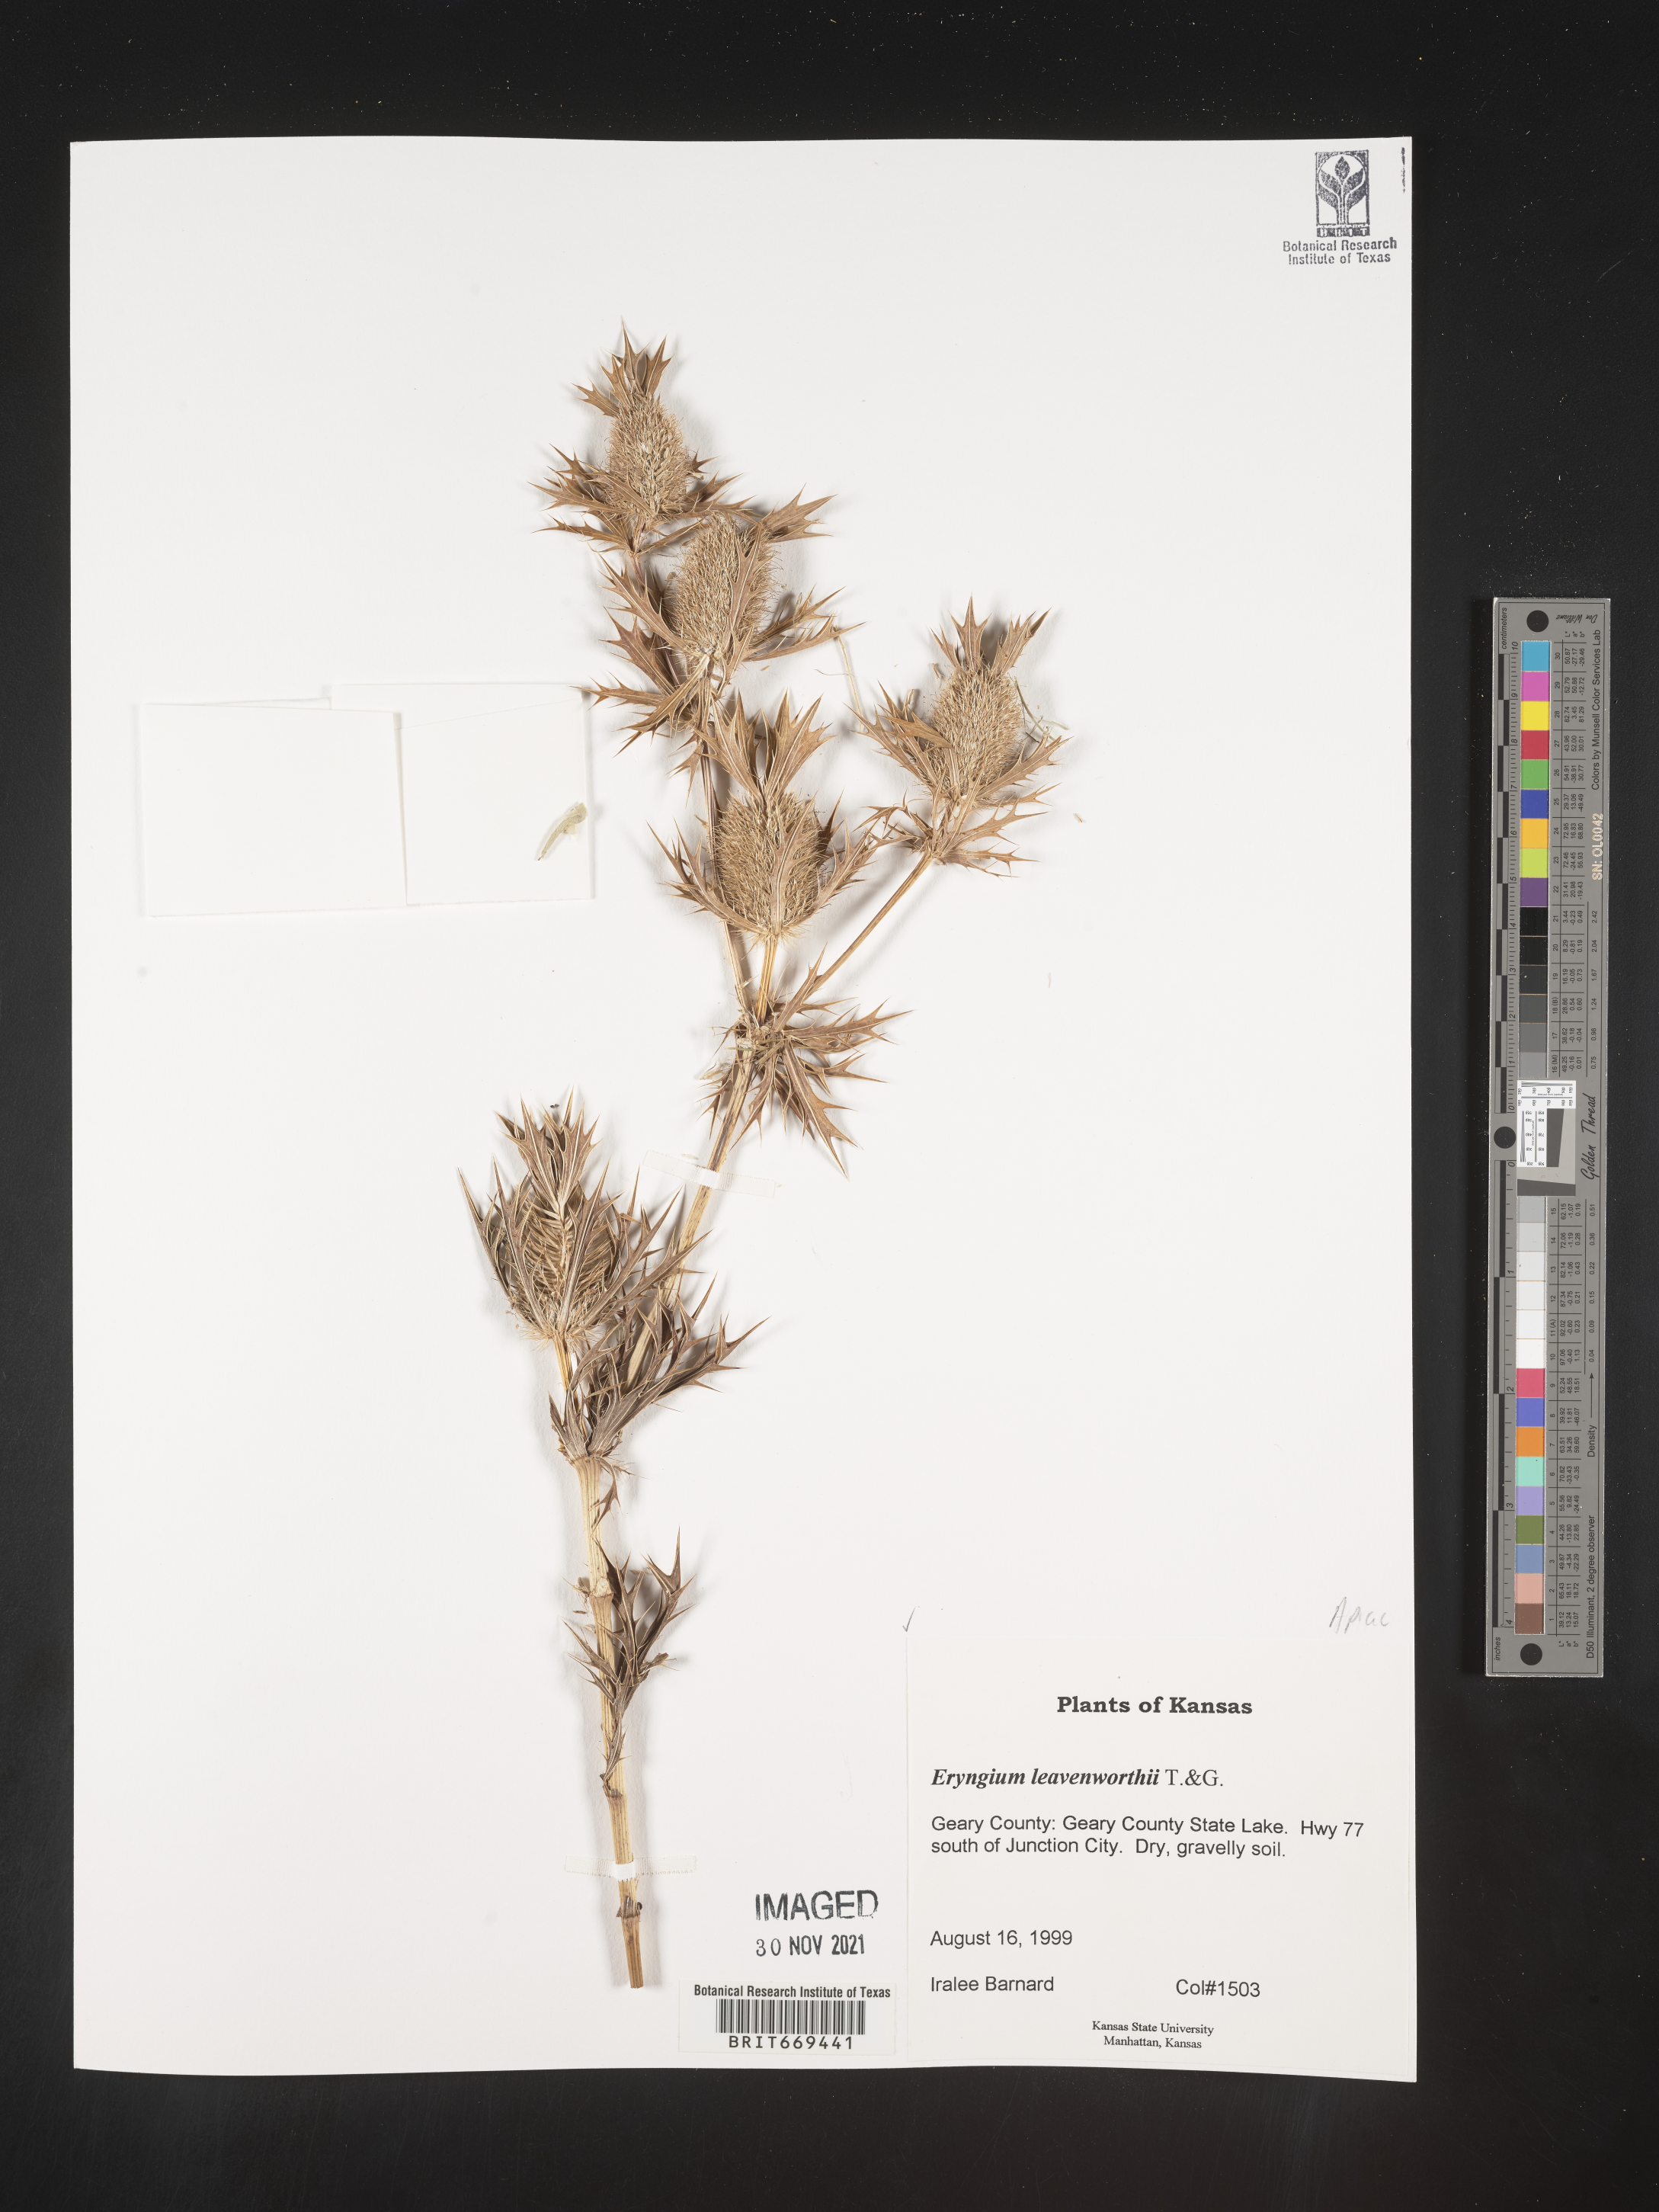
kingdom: Plantae
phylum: Tracheophyta
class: Magnoliopsida
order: Apiales
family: Apiaceae
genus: Eryngium
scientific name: Eryngium leavenworthii
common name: Leavenworth's eryngo
